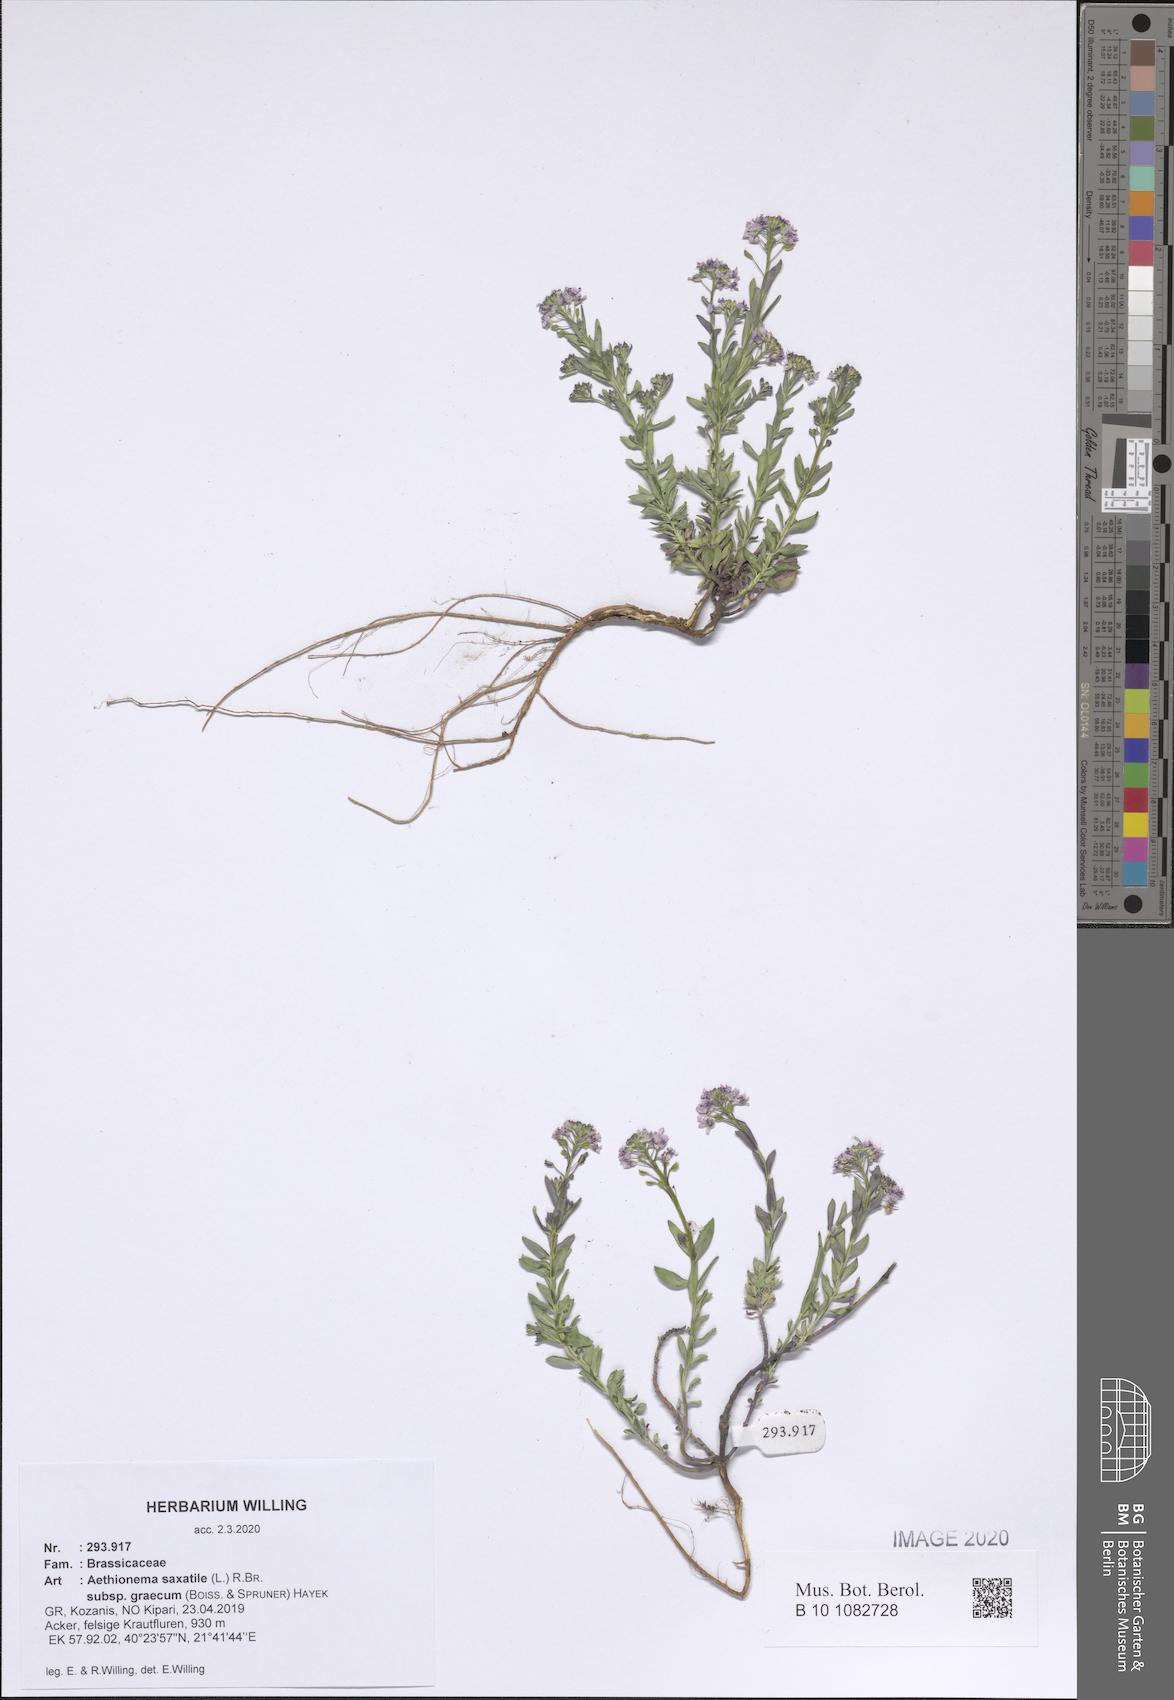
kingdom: Plantae
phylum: Tracheophyta
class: Magnoliopsida
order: Brassicales
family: Brassicaceae
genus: Aethionema
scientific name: Aethionema saxatile
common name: Burnt candytuft
